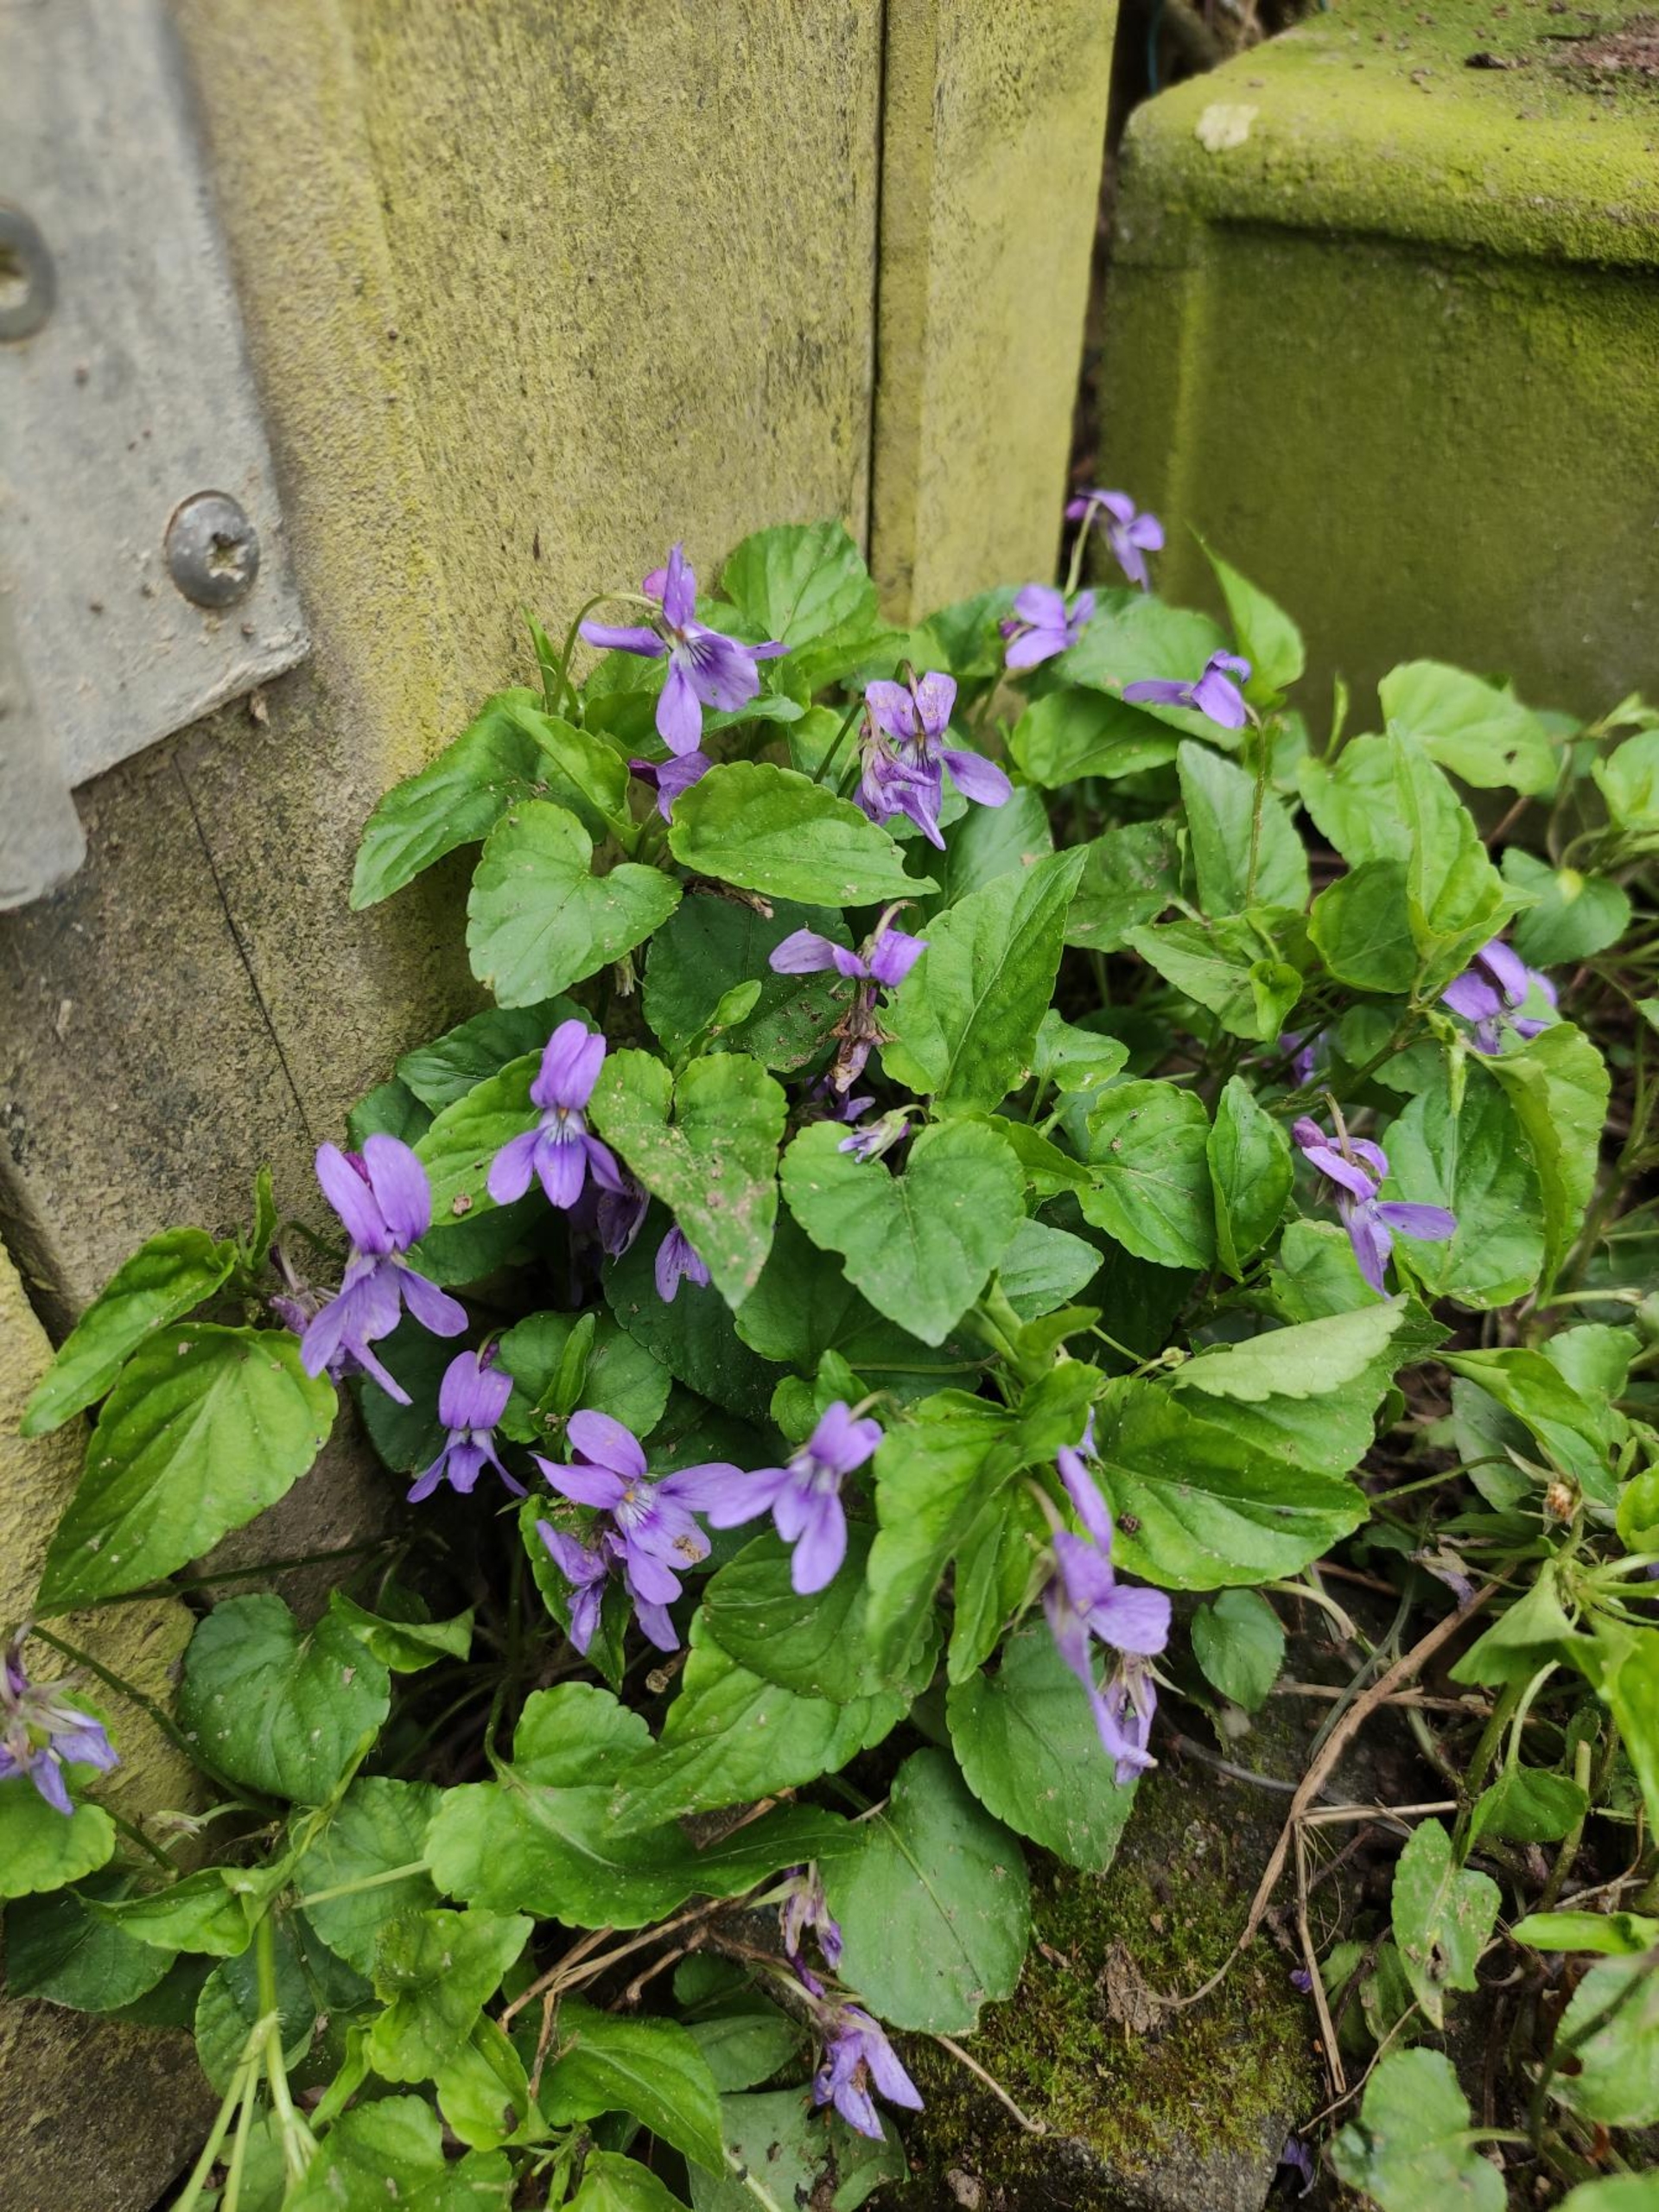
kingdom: Plantae
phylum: Tracheophyta
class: Magnoliopsida
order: Malpighiales
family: Violaceae
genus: Viola
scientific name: Viola reichenbachiana
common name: Skov-viol
